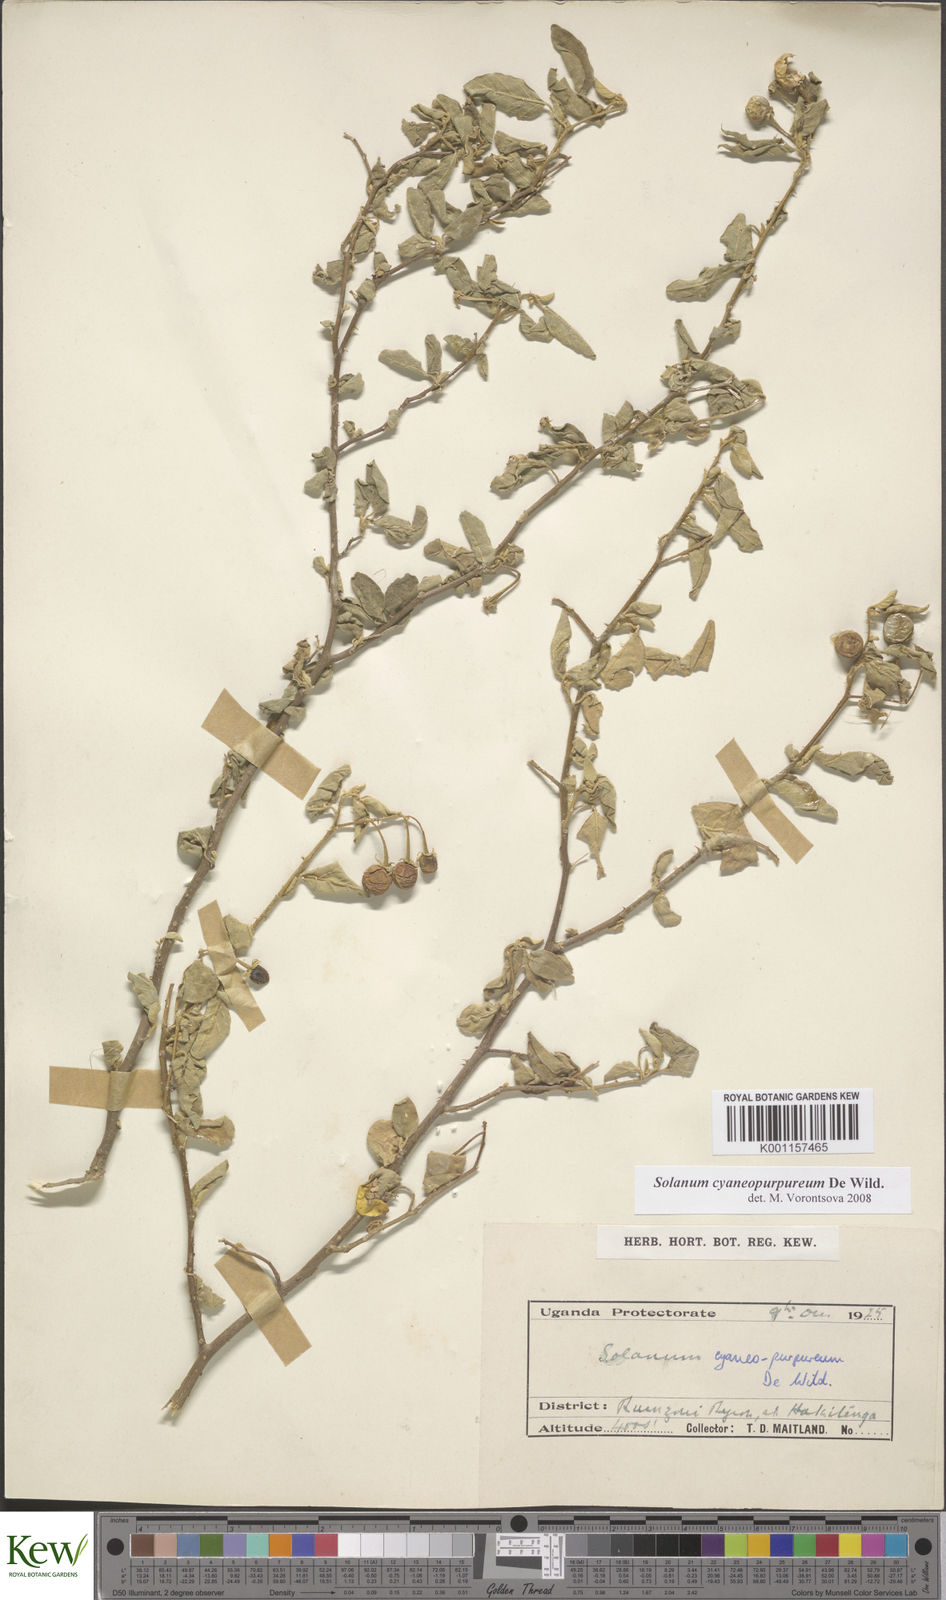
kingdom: Plantae
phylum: Tracheophyta
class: Magnoliopsida
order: Solanales
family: Solanaceae
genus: Solanum
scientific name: Solanum cyaneopurpureum
